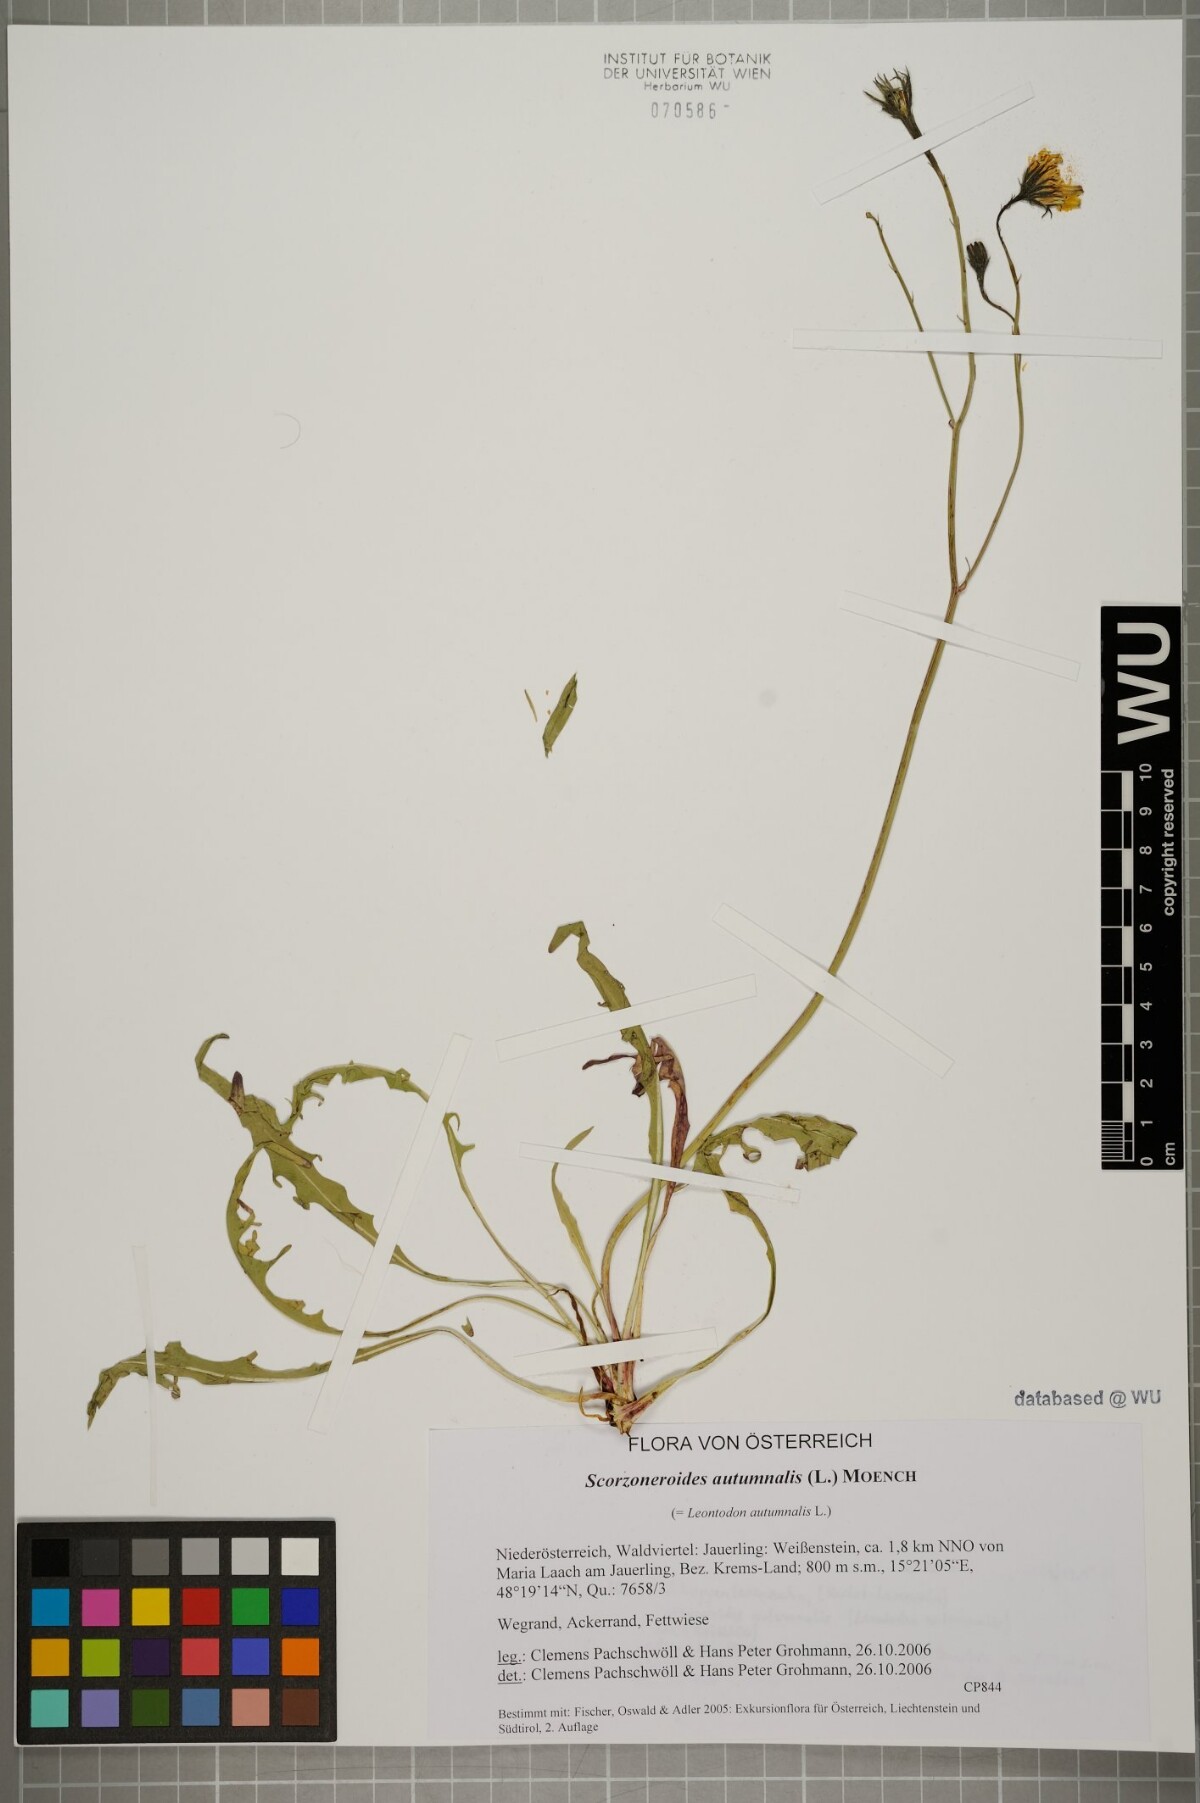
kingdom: Plantae
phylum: Tracheophyta
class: Magnoliopsida
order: Asterales
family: Asteraceae
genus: Scorzoneroides
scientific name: Scorzoneroides autumnalis
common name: Autumn hawkbit
